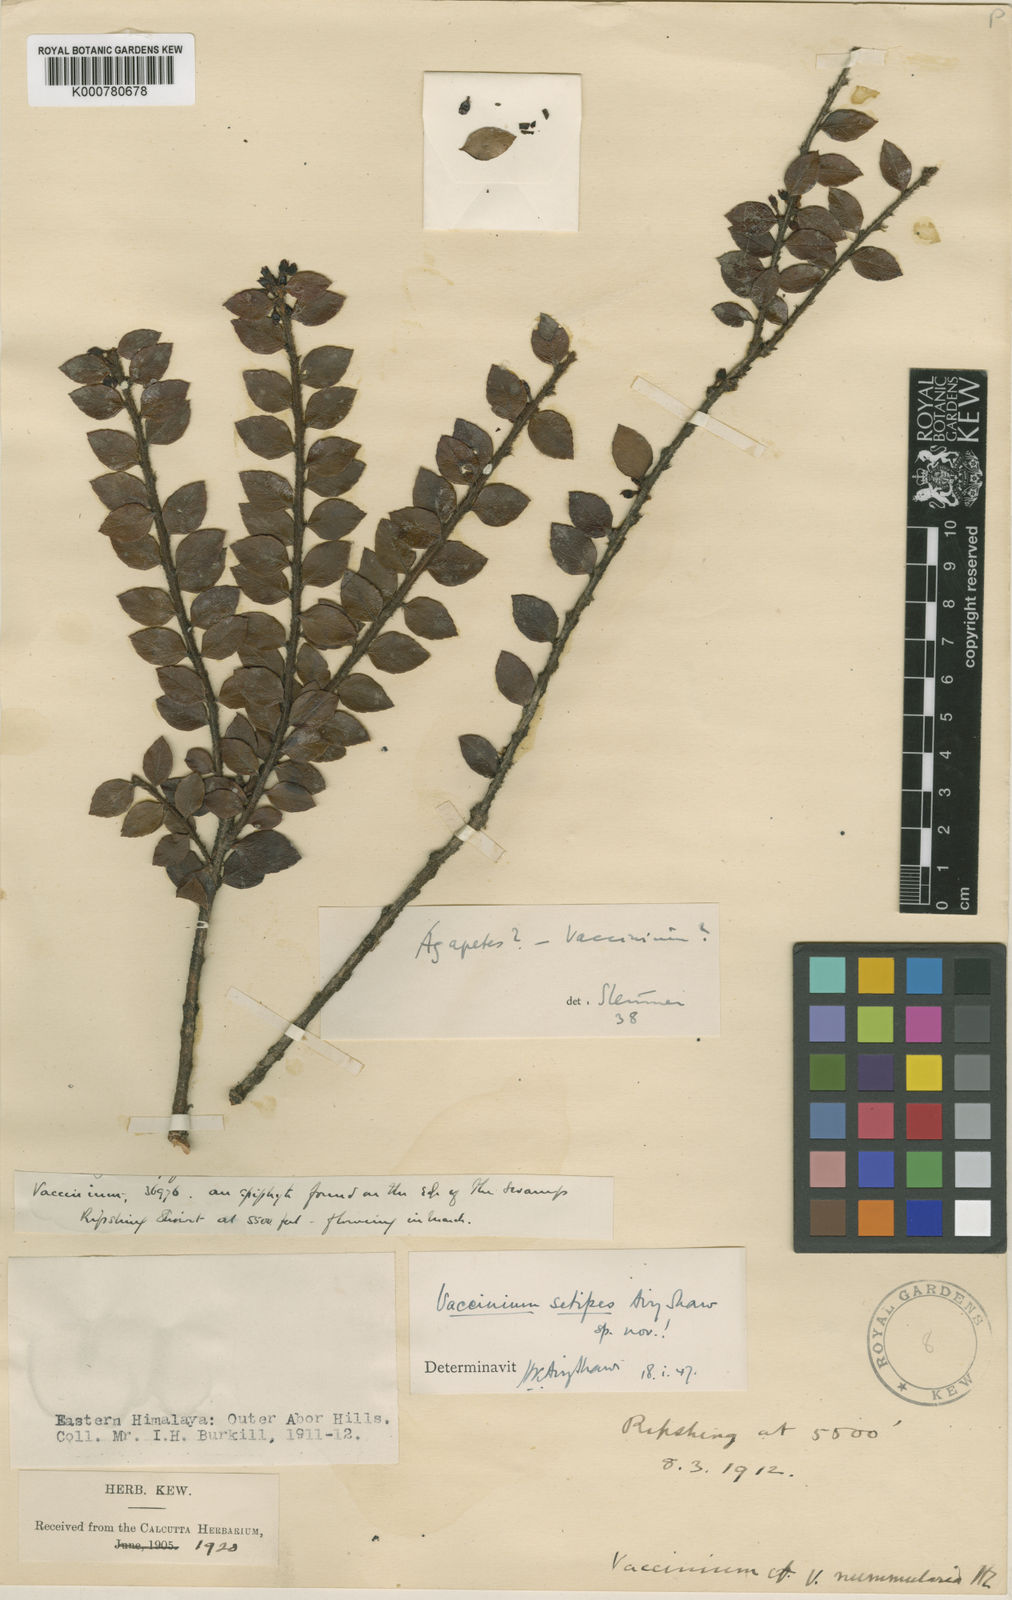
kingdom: Plantae
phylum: Tracheophyta
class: Magnoliopsida
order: Ericales
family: Ericaceae
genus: Vaccinium
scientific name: Vaccinium nummularia
